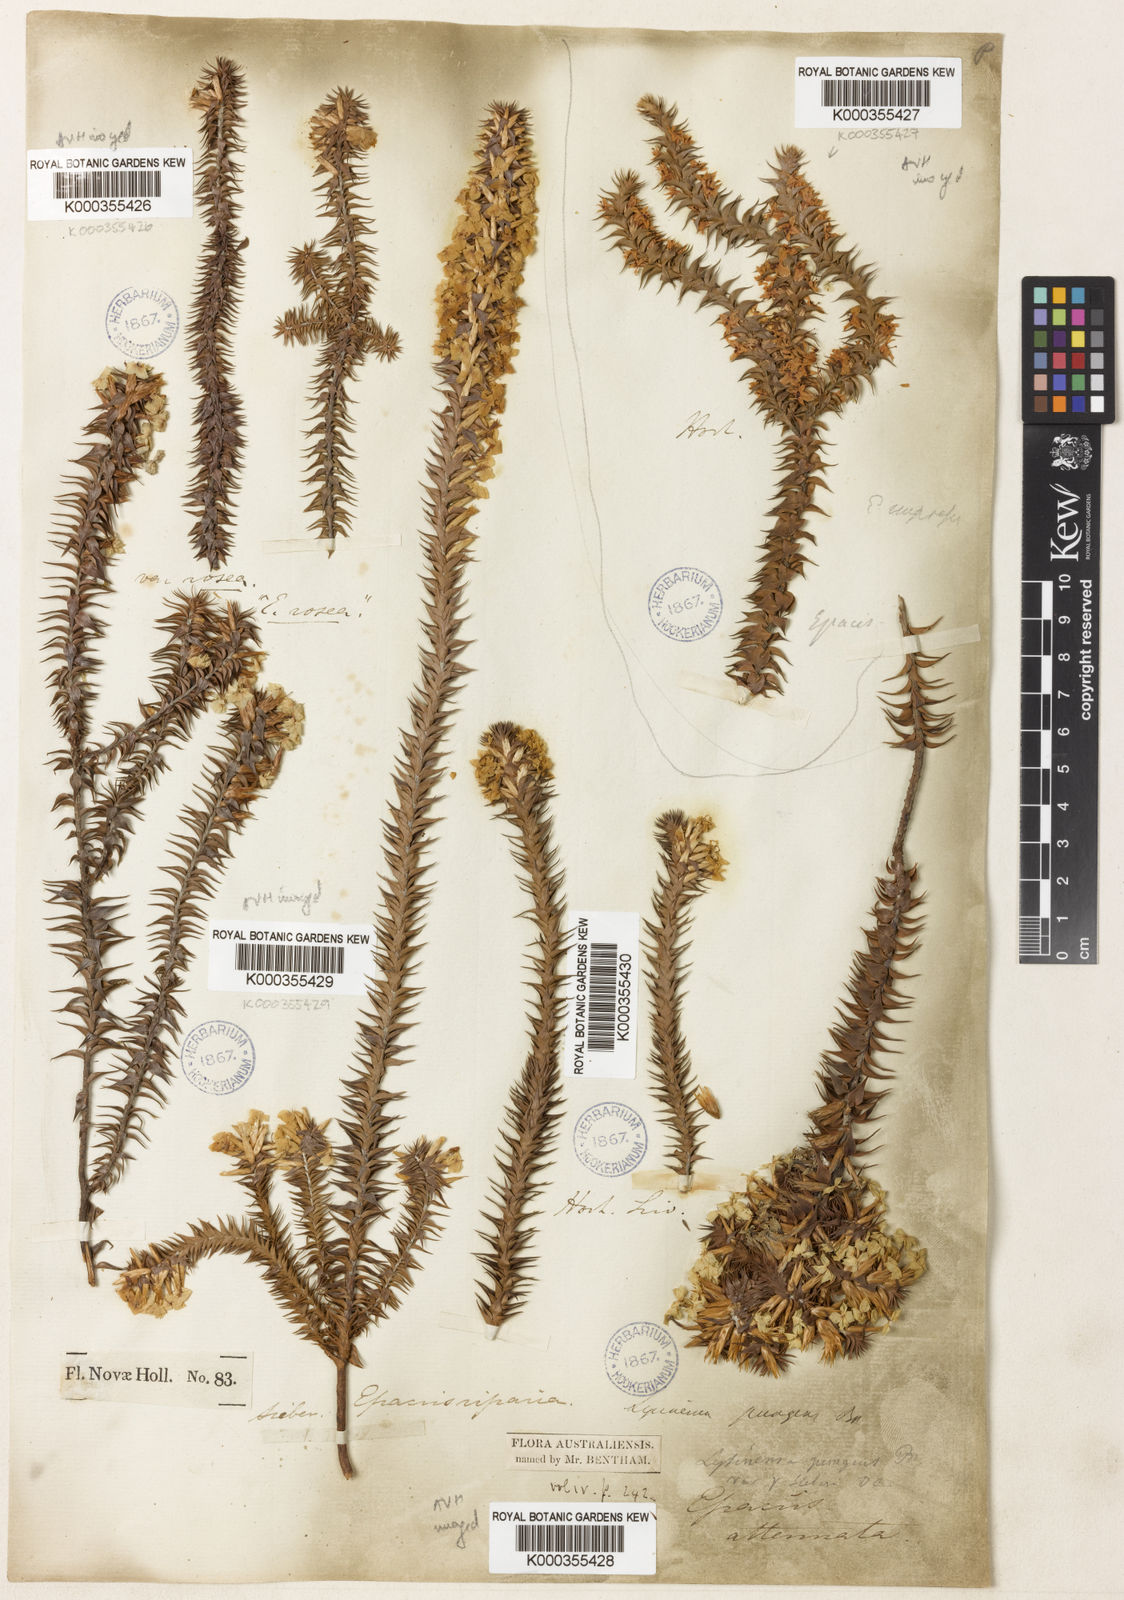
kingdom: Plantae
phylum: Tracheophyta
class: Magnoliopsida
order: Ericales
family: Ericaceae
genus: Woollsia
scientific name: Woollsia pungens
